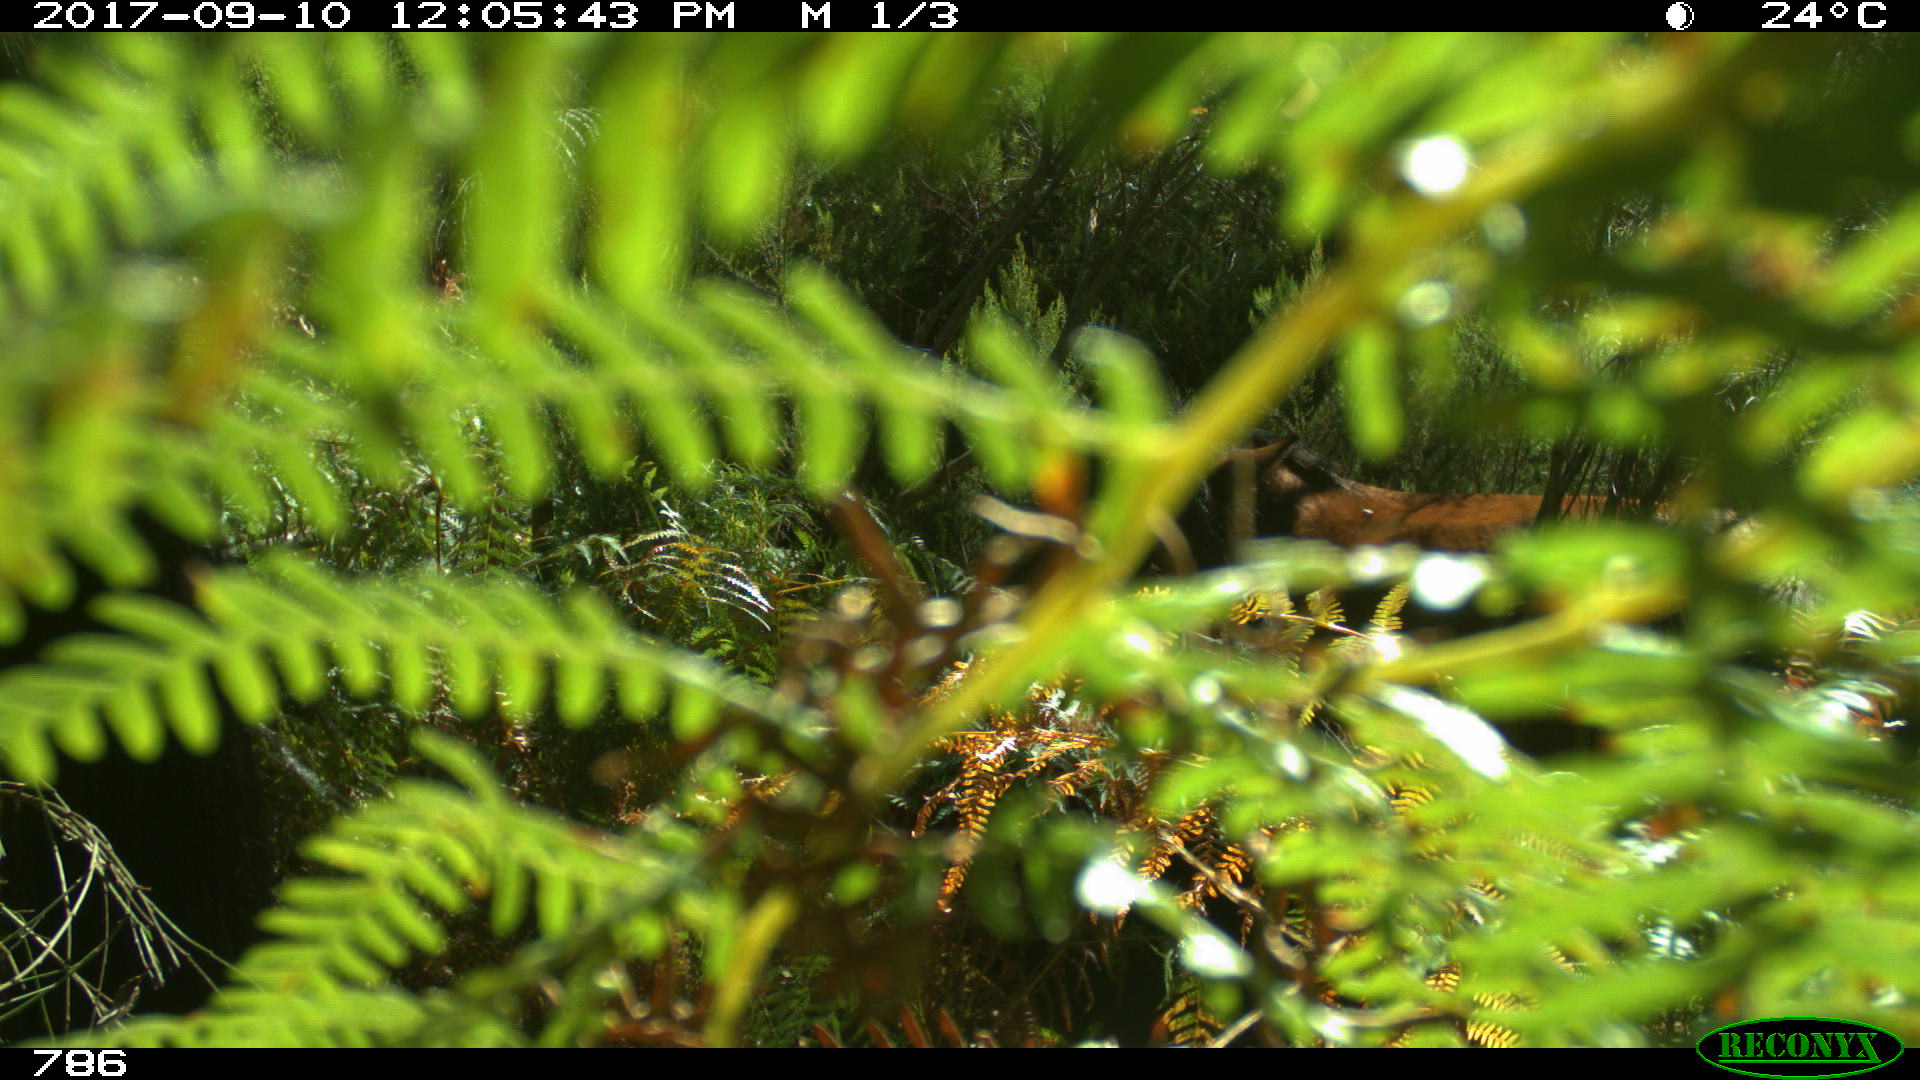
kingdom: Animalia
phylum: Chordata
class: Mammalia
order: Perissodactyla
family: Equidae
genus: Equus
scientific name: Equus caballus
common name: Horse
